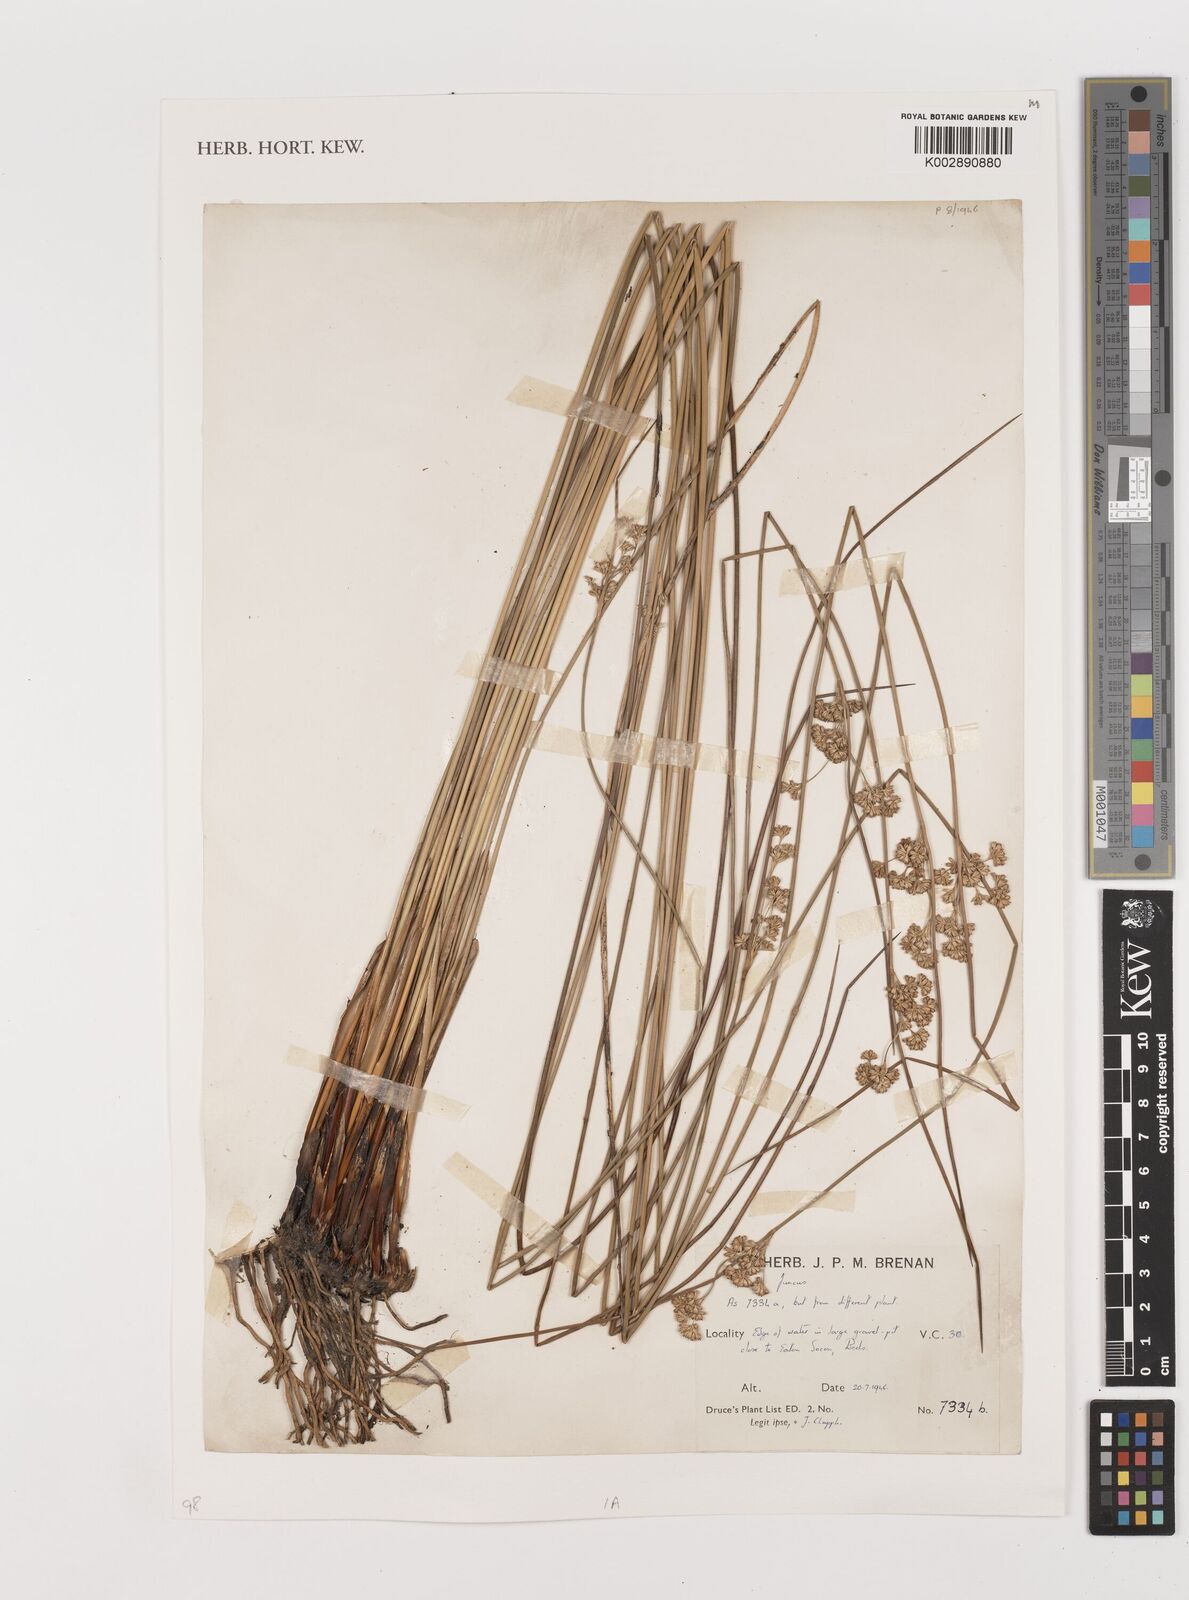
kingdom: Plantae
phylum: Tracheophyta
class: Liliopsida
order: Poales
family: Juncaceae
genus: Juncus
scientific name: Juncus
